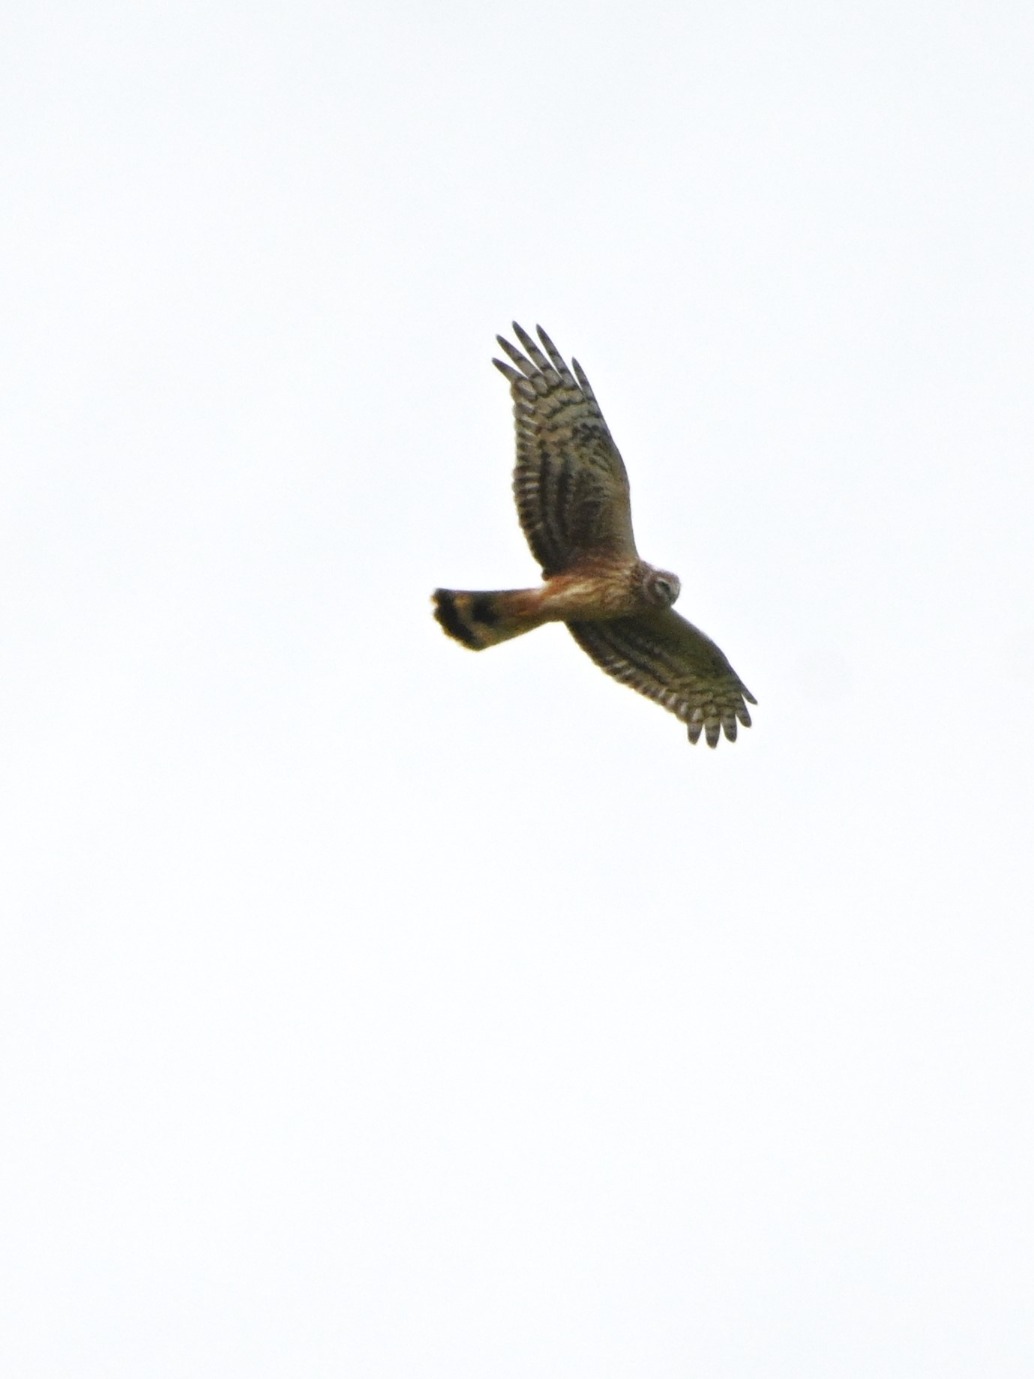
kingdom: Animalia
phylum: Chordata
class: Aves
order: Accipitriformes
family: Accipitridae
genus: Circus
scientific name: Circus cyaneus
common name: Blå kærhøg
